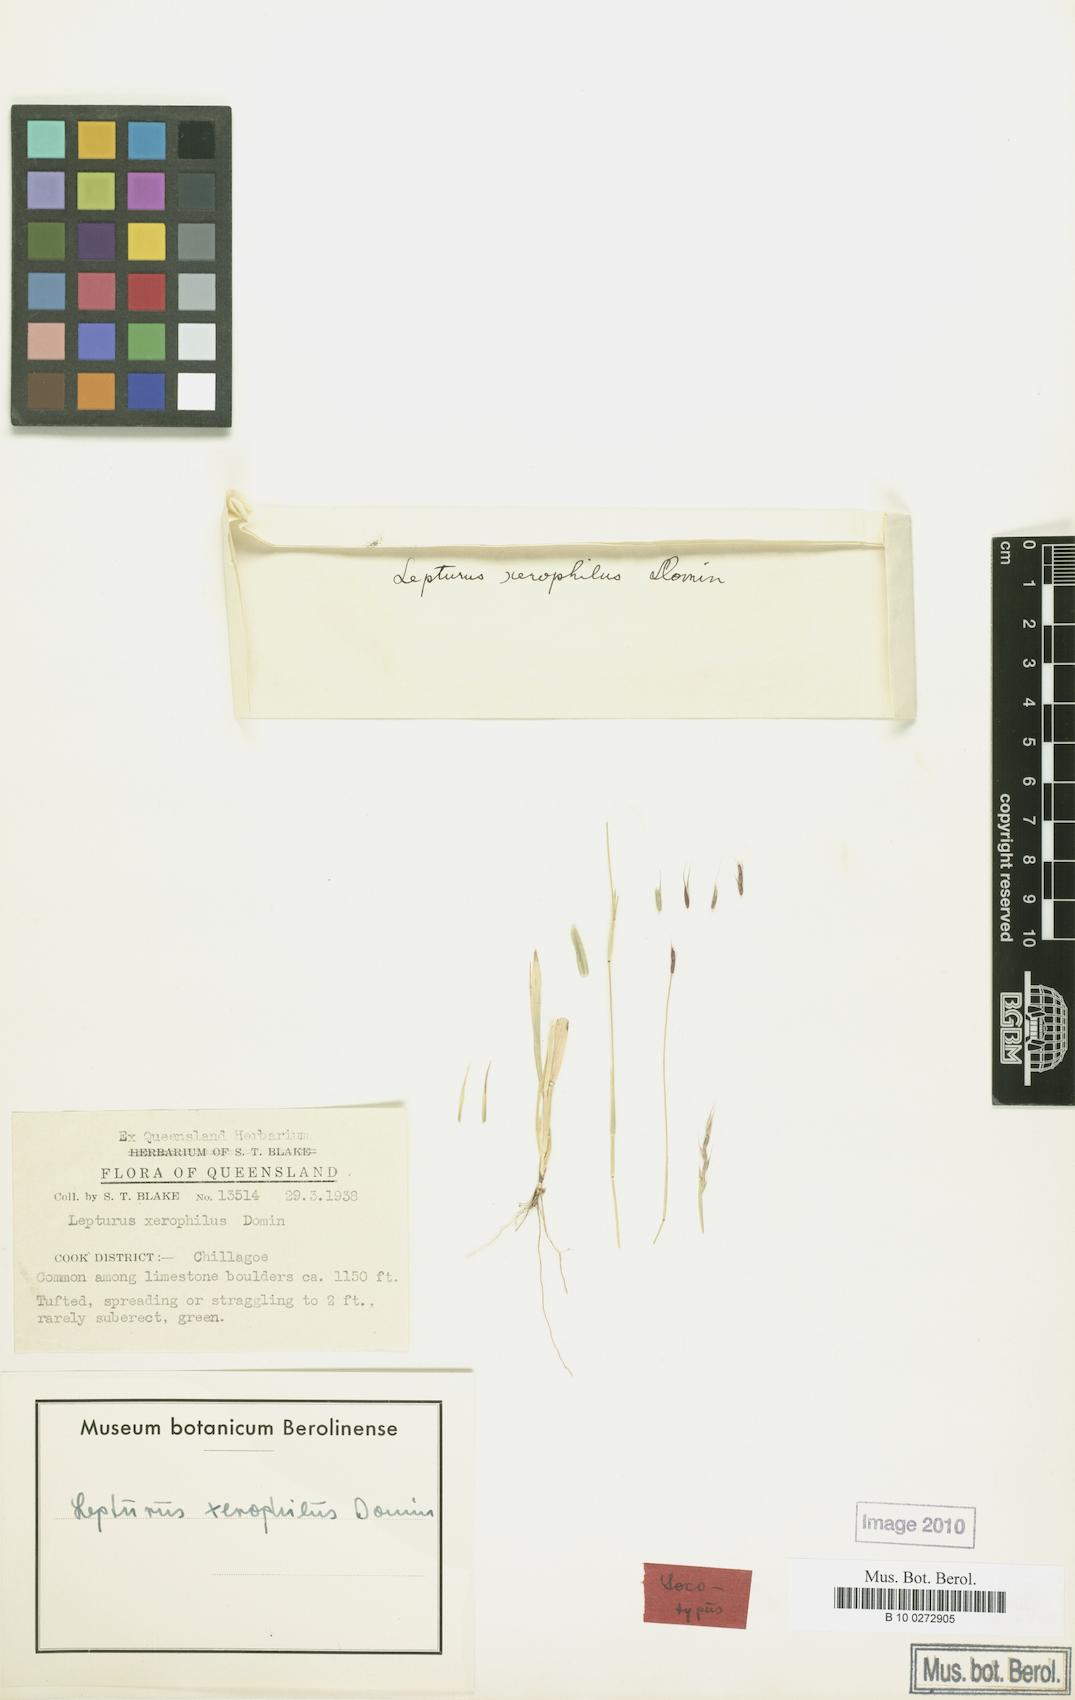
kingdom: Plantae
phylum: Tracheophyta
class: Liliopsida
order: Poales
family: Poaceae
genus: Lepturus
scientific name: Lepturus xerophilus
